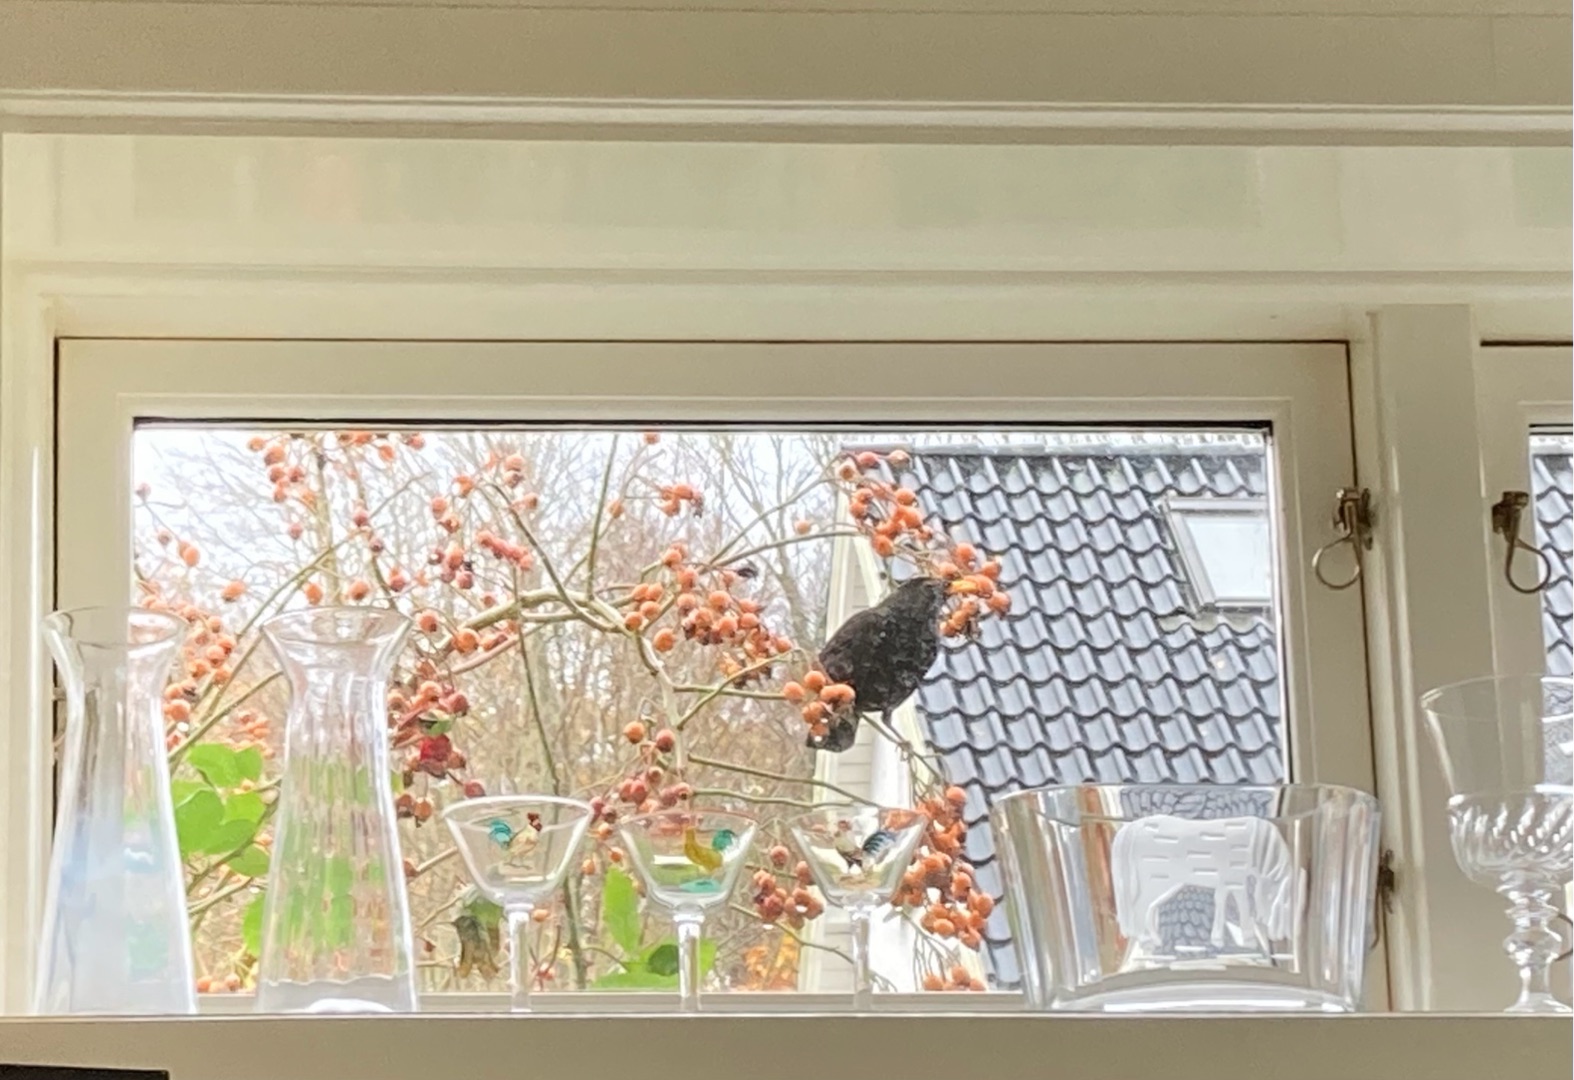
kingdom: Animalia
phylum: Chordata
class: Aves
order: Passeriformes
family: Turdidae
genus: Turdus
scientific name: Turdus merula
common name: Solsort
